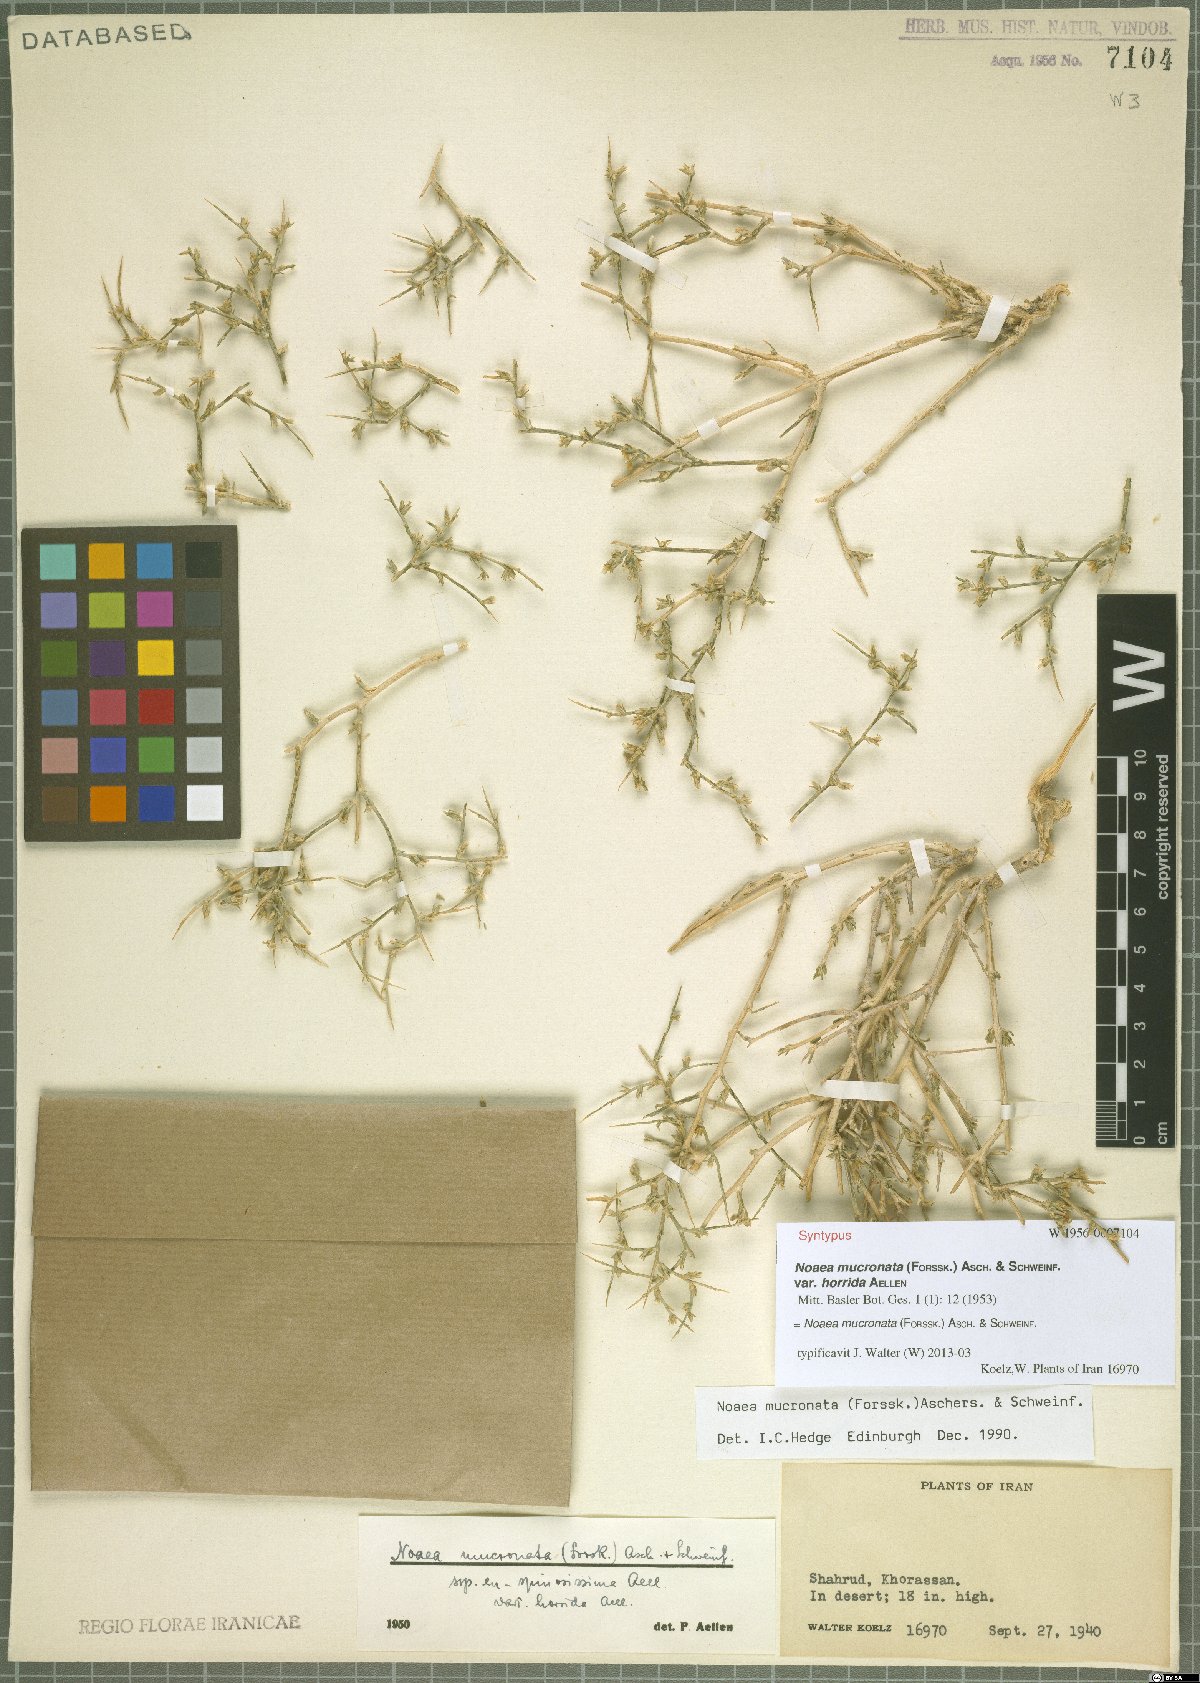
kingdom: Plantae
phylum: Tracheophyta
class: Magnoliopsida
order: Caryophyllales
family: Amaranthaceae
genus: Noaea
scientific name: Noaea mucronata
